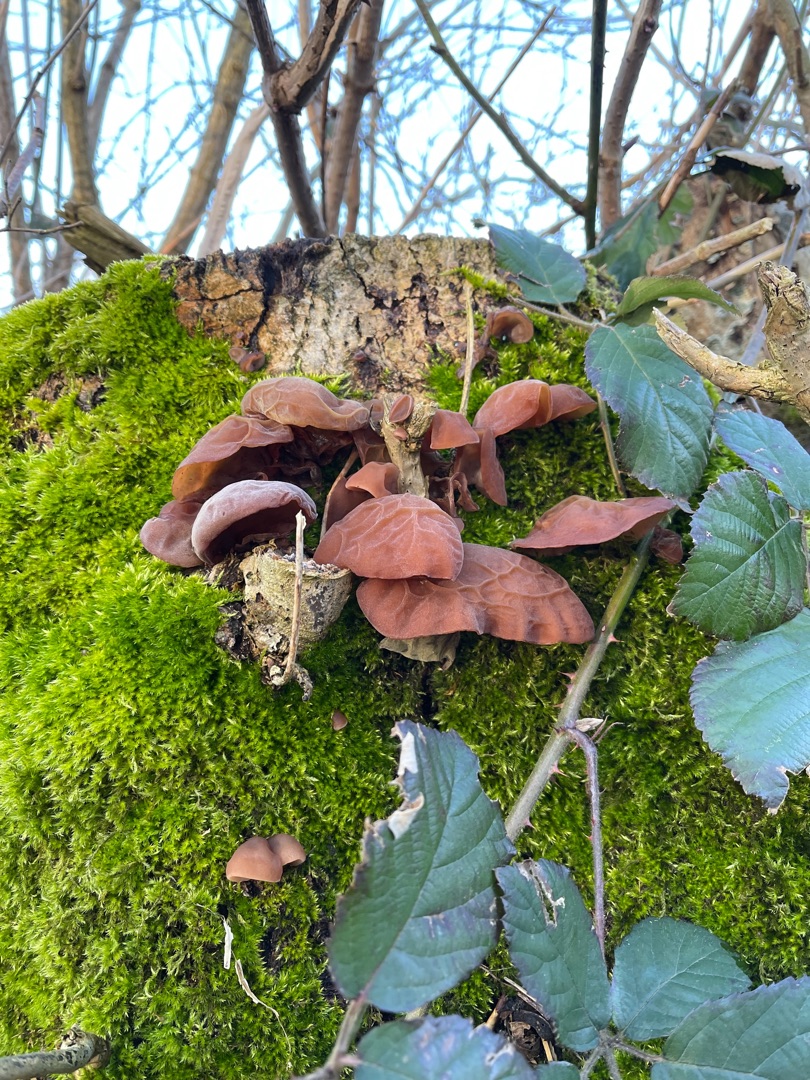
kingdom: Fungi
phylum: Basidiomycota
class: Agaricomycetes
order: Auriculariales
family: Auriculariaceae
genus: Auricularia
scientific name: Auricularia auricula-judae
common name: Almindelig judasøre
